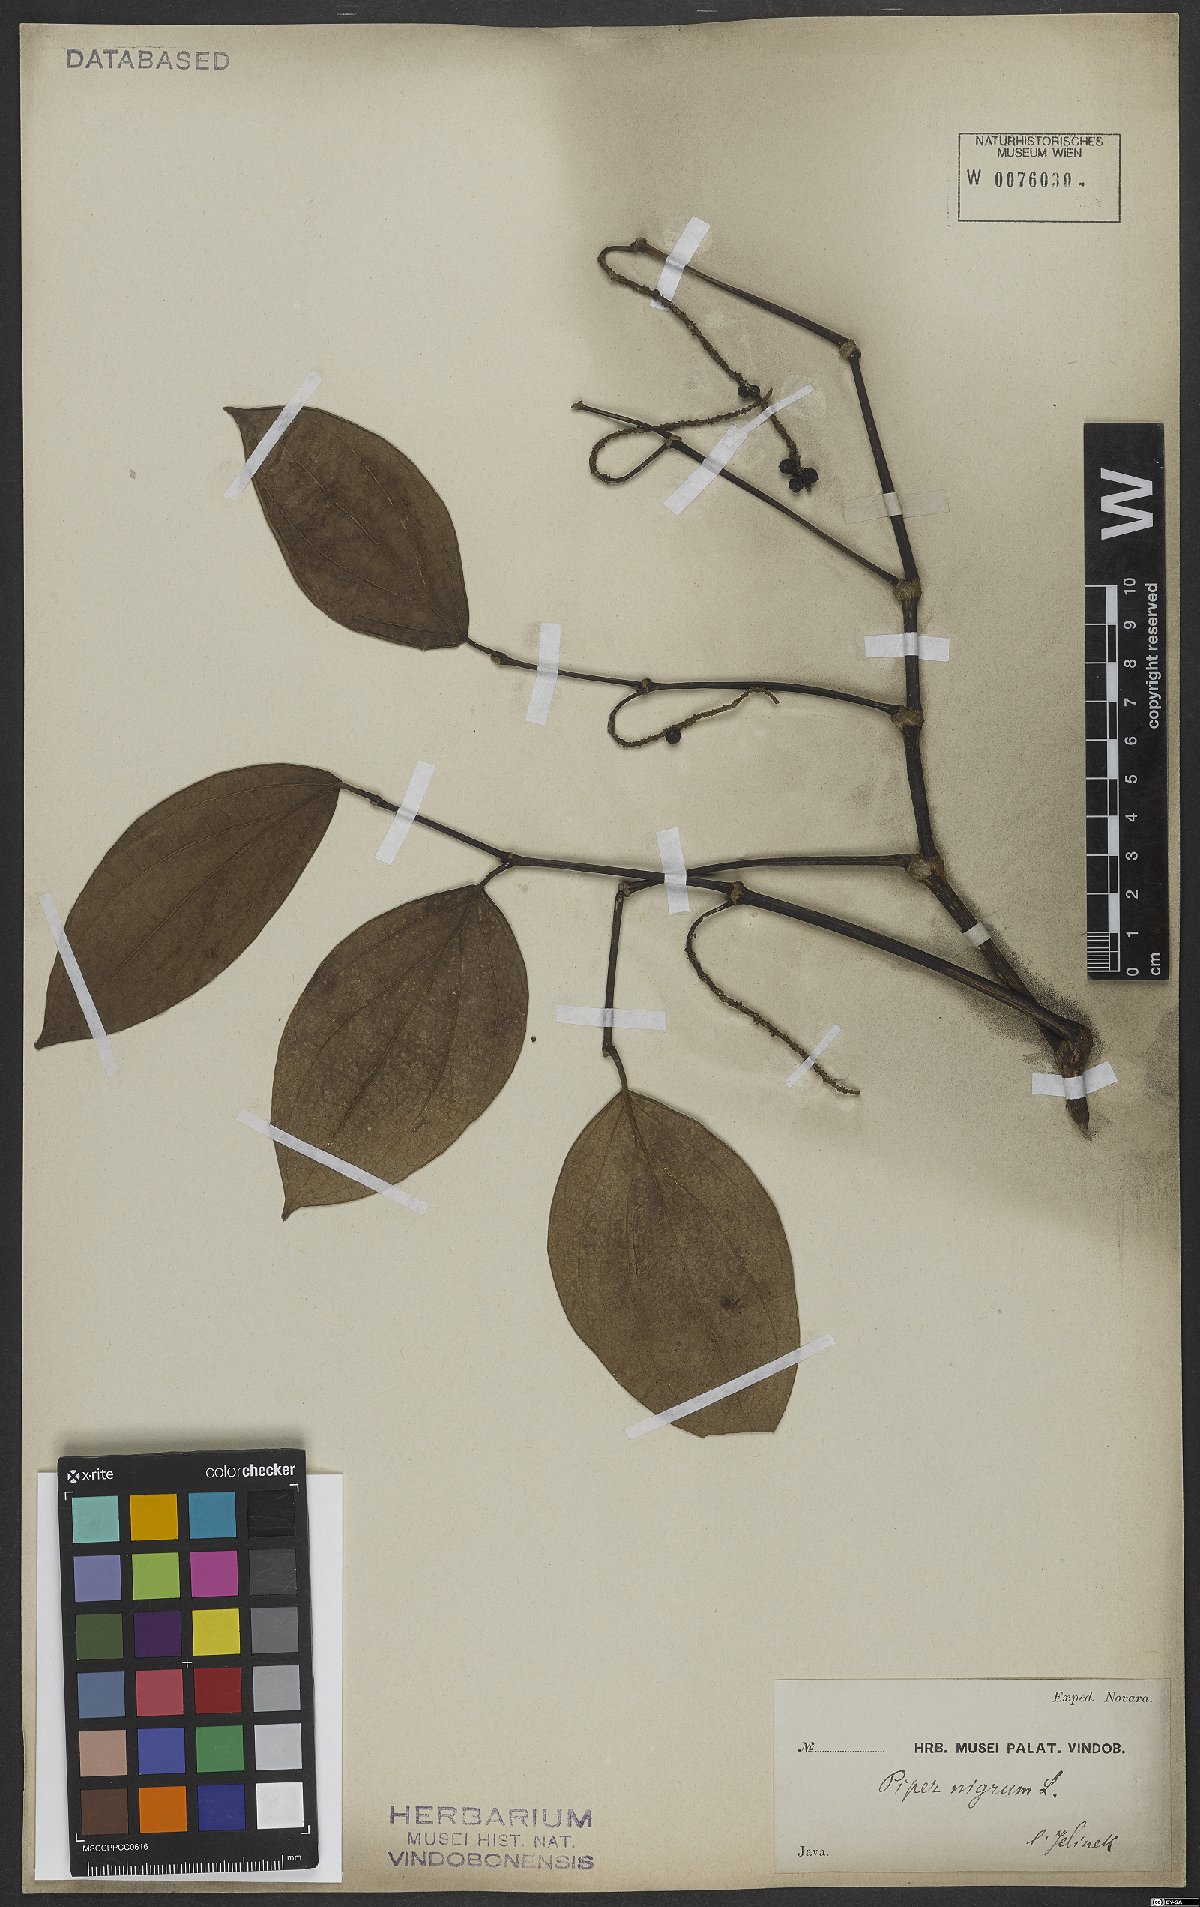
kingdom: Plantae
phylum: Tracheophyta
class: Magnoliopsida
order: Piperales
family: Piperaceae
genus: Piper
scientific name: Piper nigrum
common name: Black pepper
